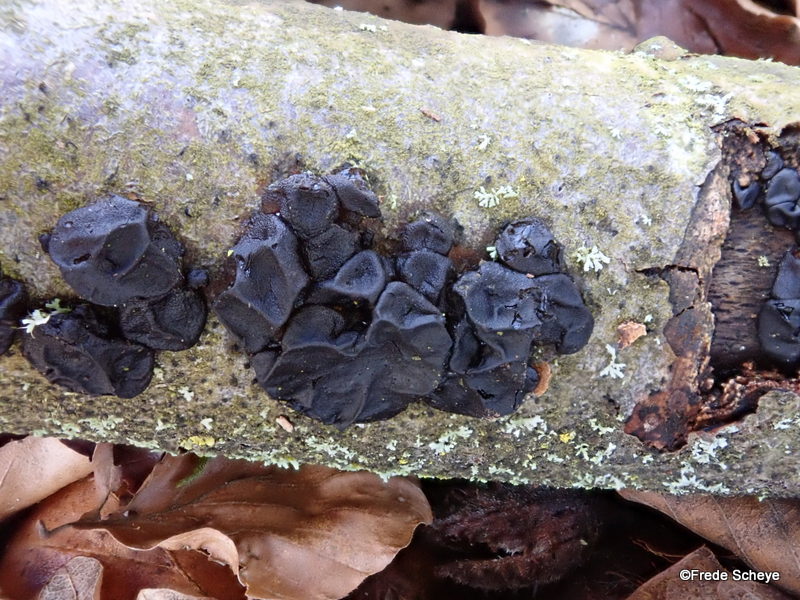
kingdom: Fungi
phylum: Basidiomycota
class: Agaricomycetes
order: Auriculariales
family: Auriculariaceae
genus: Exidia
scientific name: Exidia nigricans
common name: almindelig bævretop
